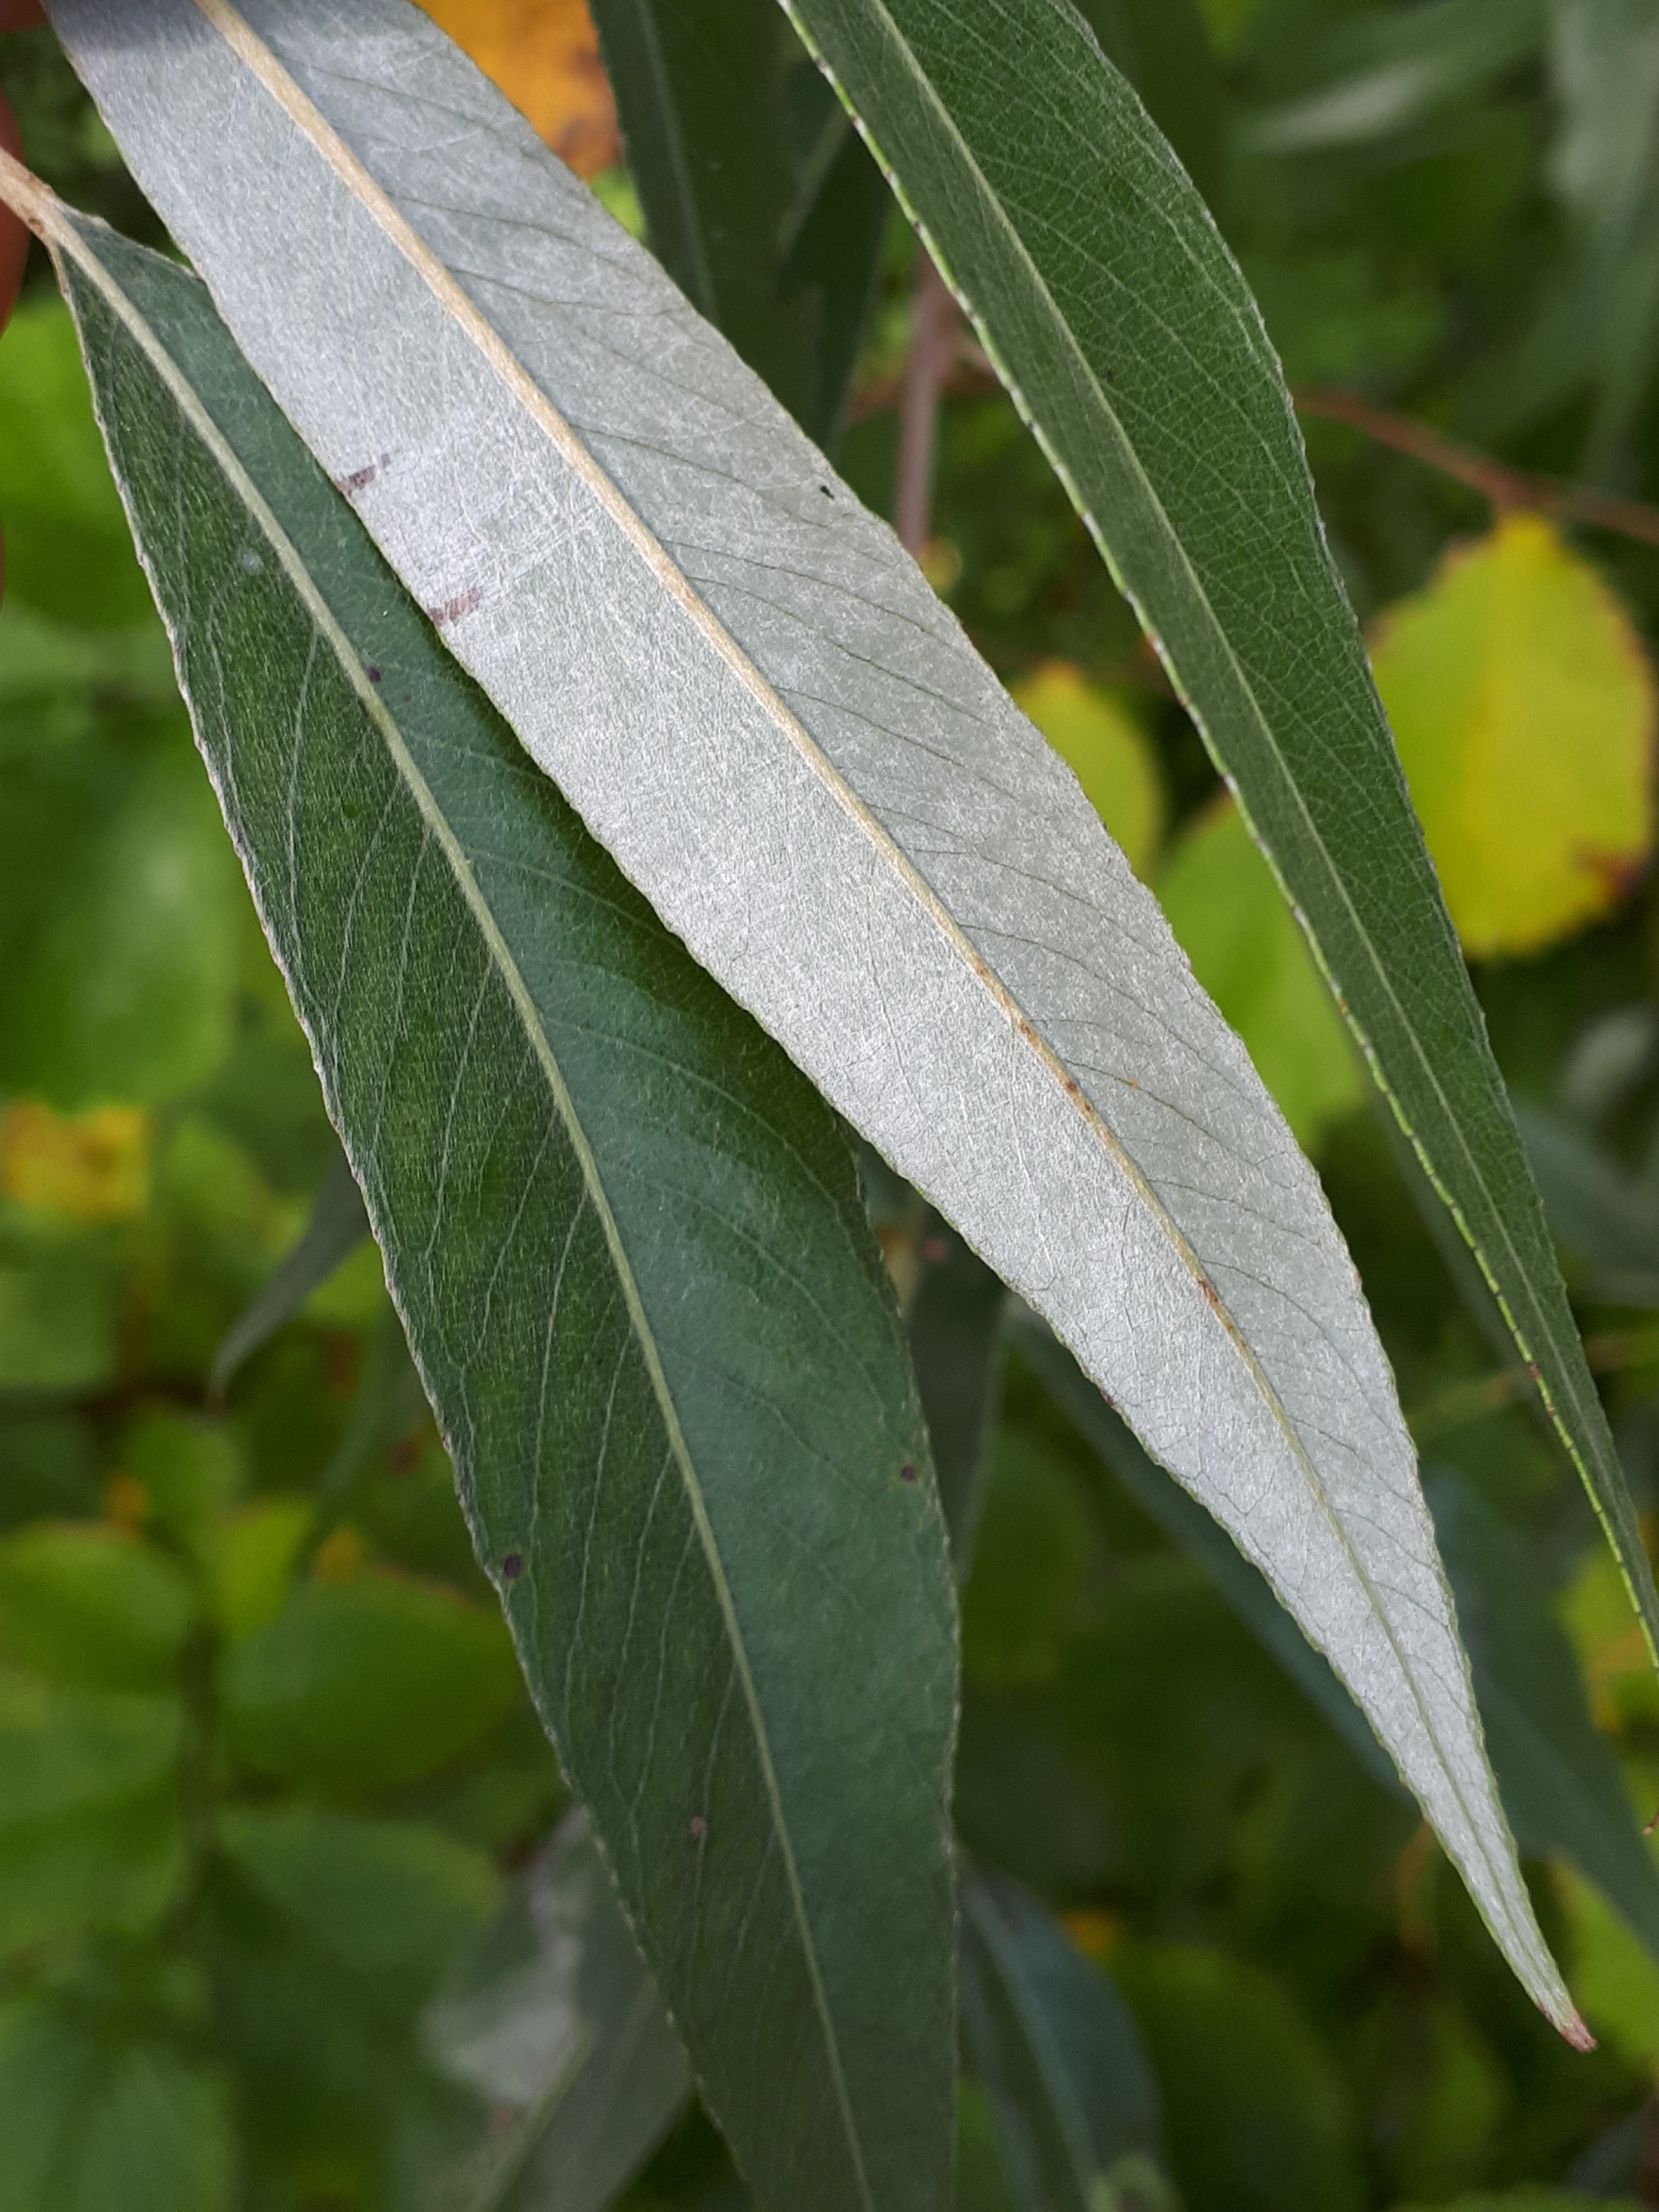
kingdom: Plantae
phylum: Tracheophyta
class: Magnoliopsida
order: Malpighiales
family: Salicaceae
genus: Salix
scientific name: Salix alba
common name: Hvid-pil
